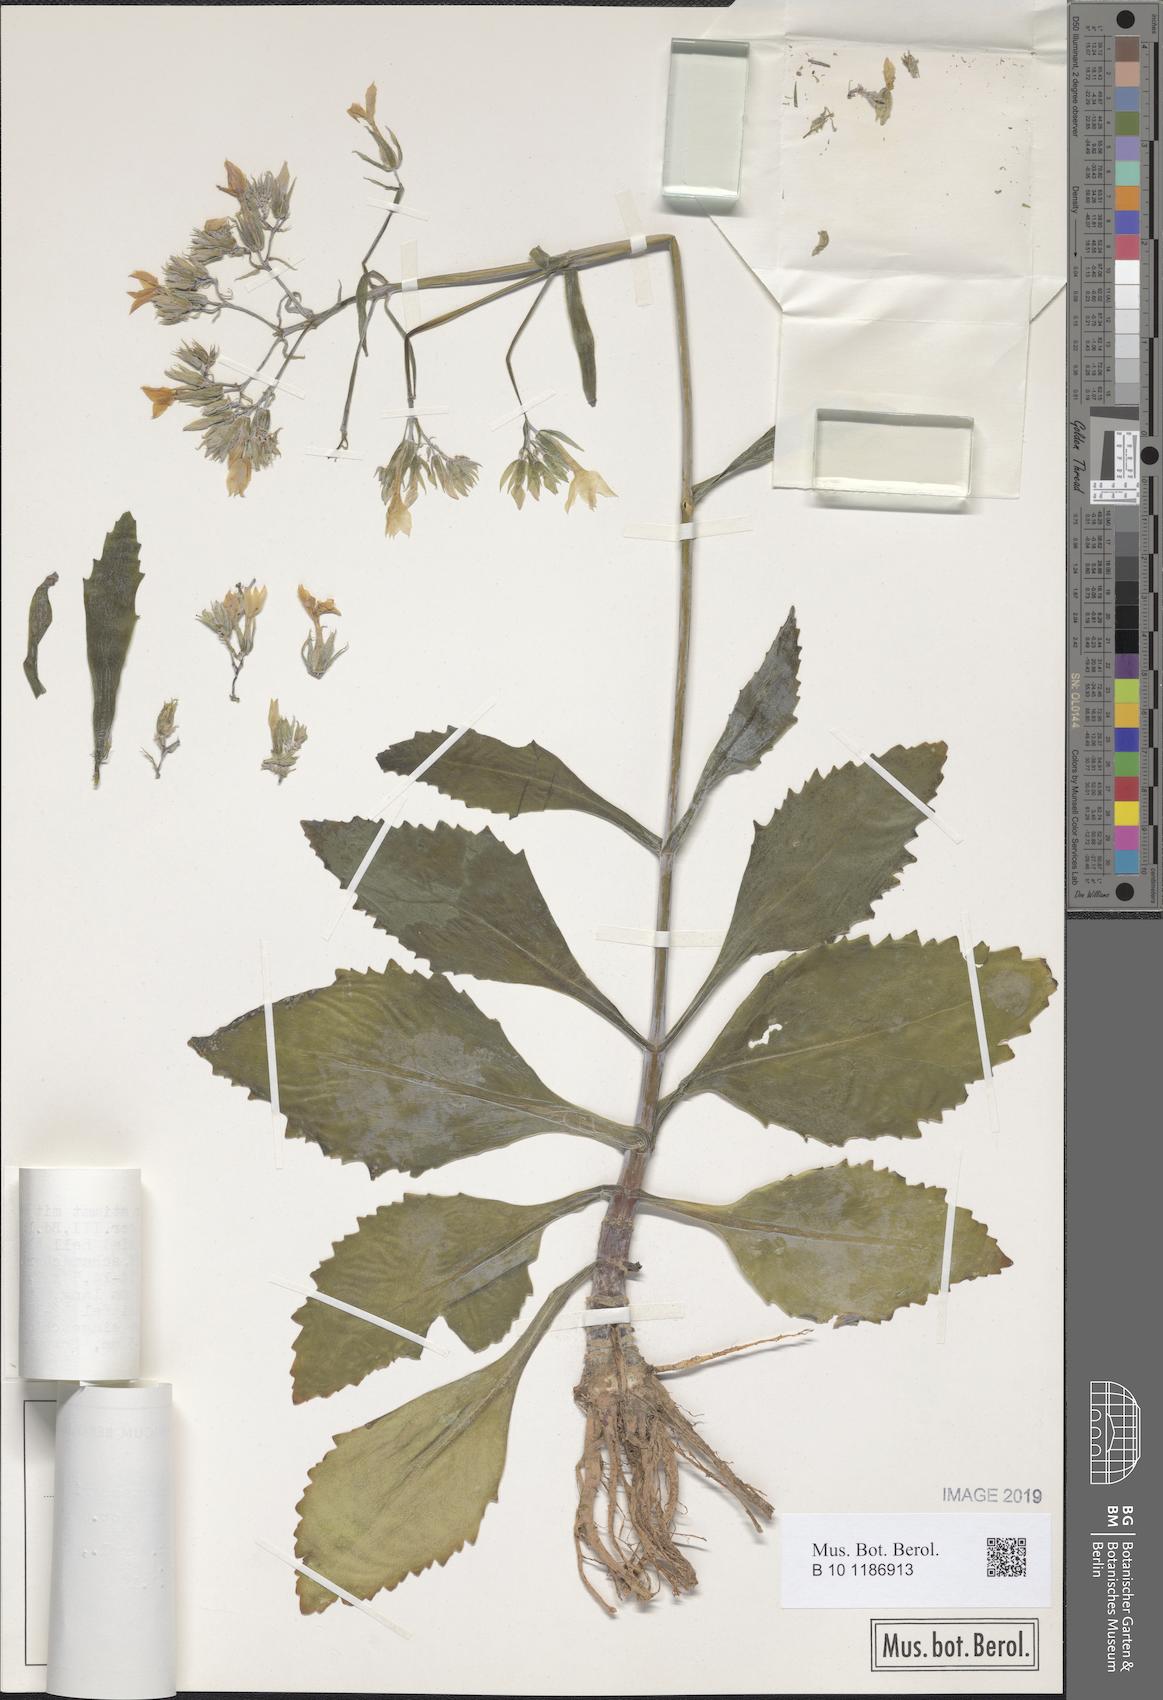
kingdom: Plantae
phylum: Tracheophyta
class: Magnoliopsida
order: Saxifragales
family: Crassulaceae
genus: Kalanchoe
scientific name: Kalanchoe integra
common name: Neverdie
